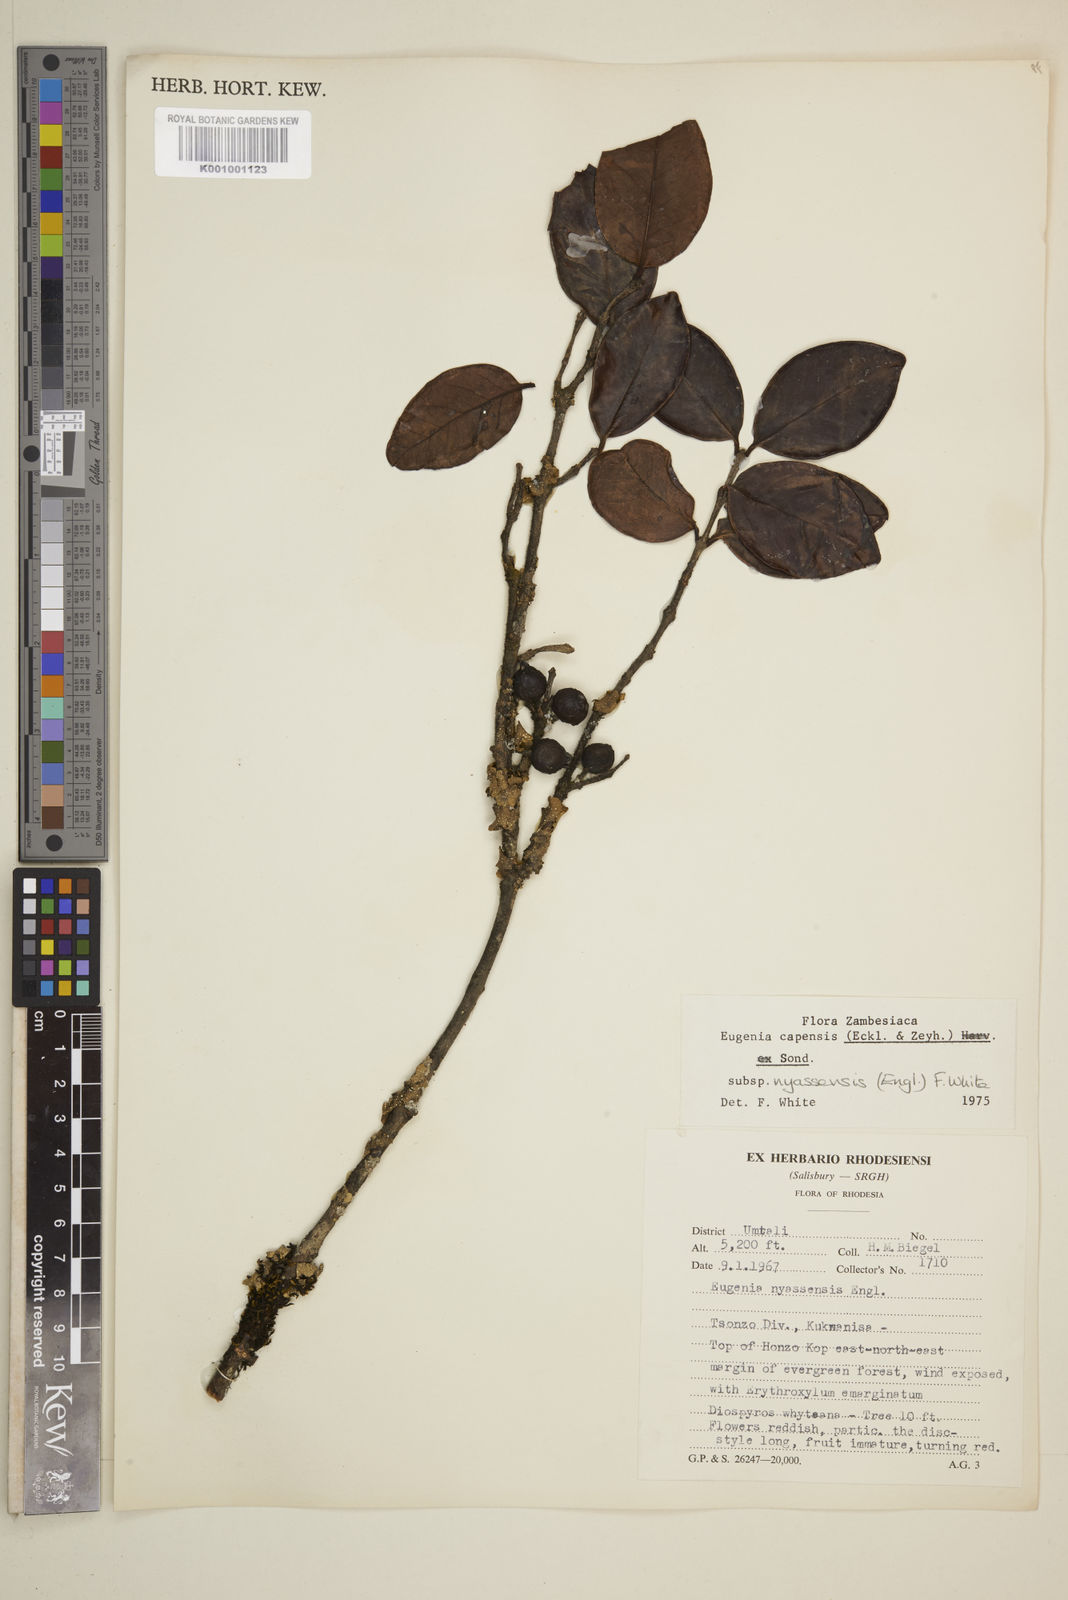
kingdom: Plantae
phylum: Tracheophyta
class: Magnoliopsida
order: Myrtales
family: Myrtaceae
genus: Eugenia
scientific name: Eugenia capensis
